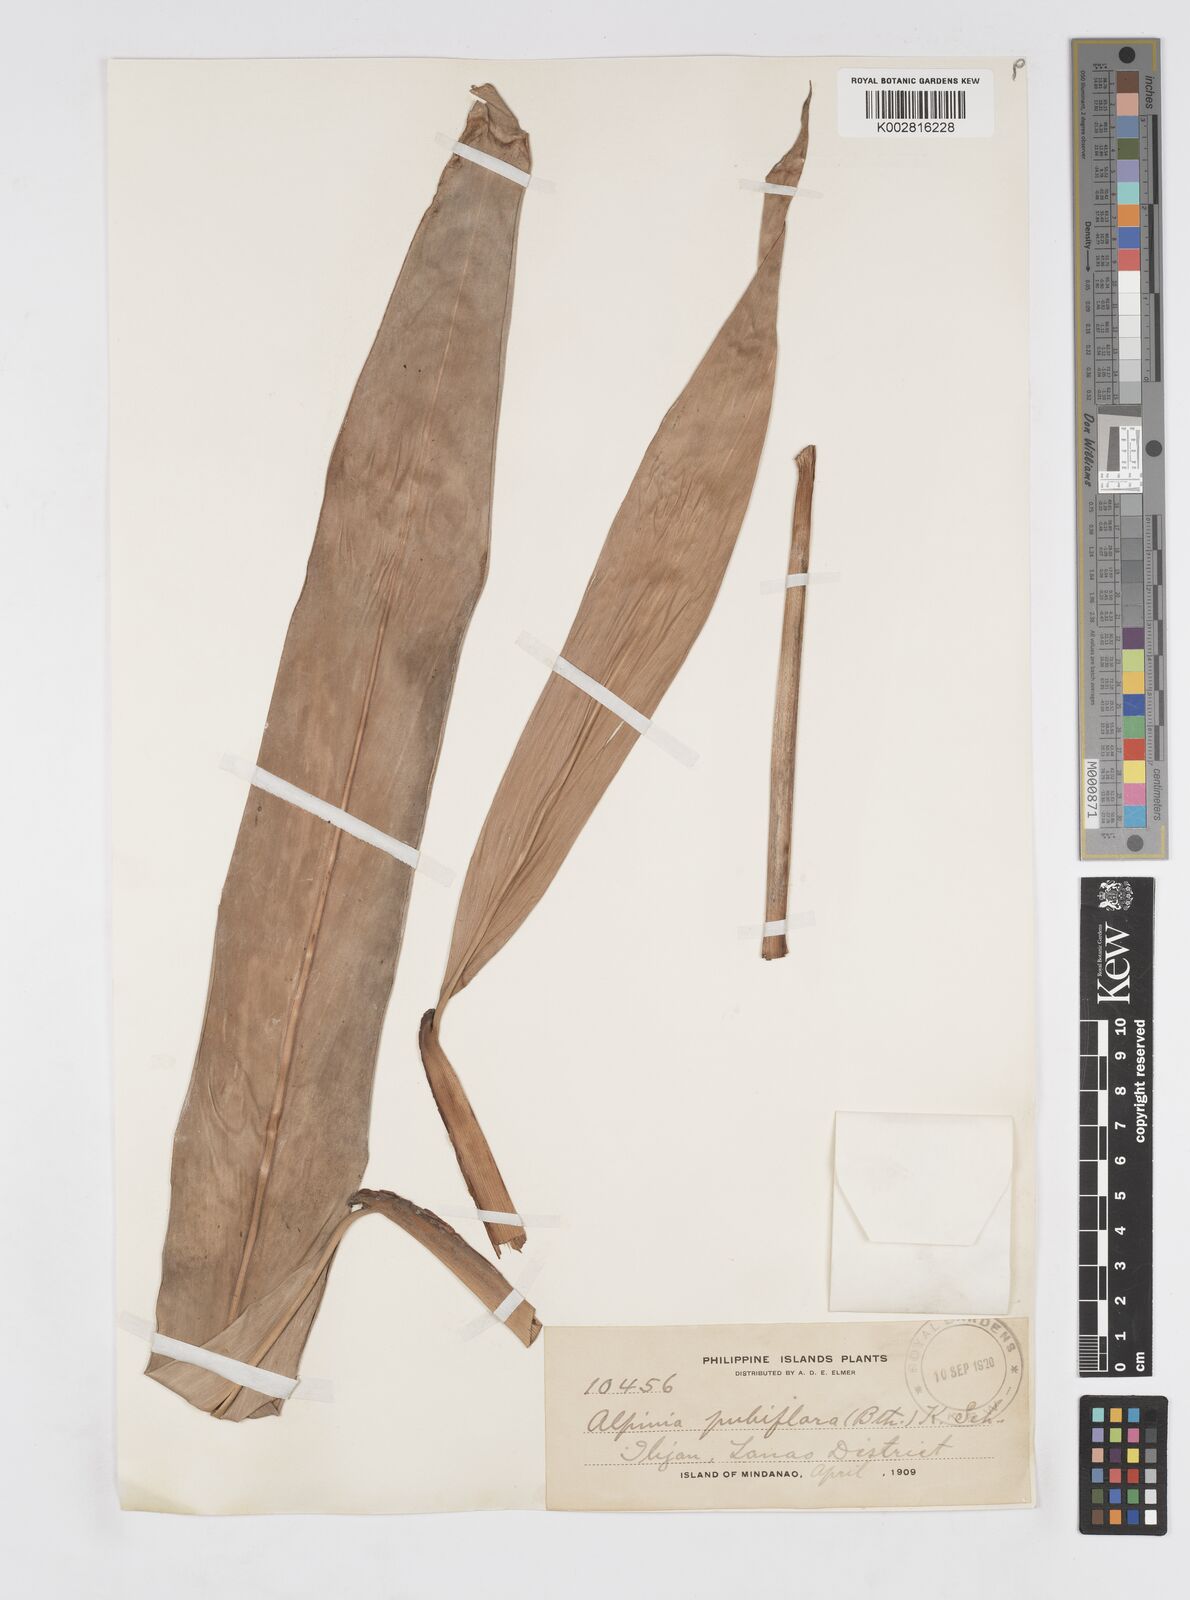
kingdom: Plantae
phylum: Tracheophyta
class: Liliopsida
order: Zingiberales
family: Zingiberaceae
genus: Alpinia
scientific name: Alpinia pubiflora
